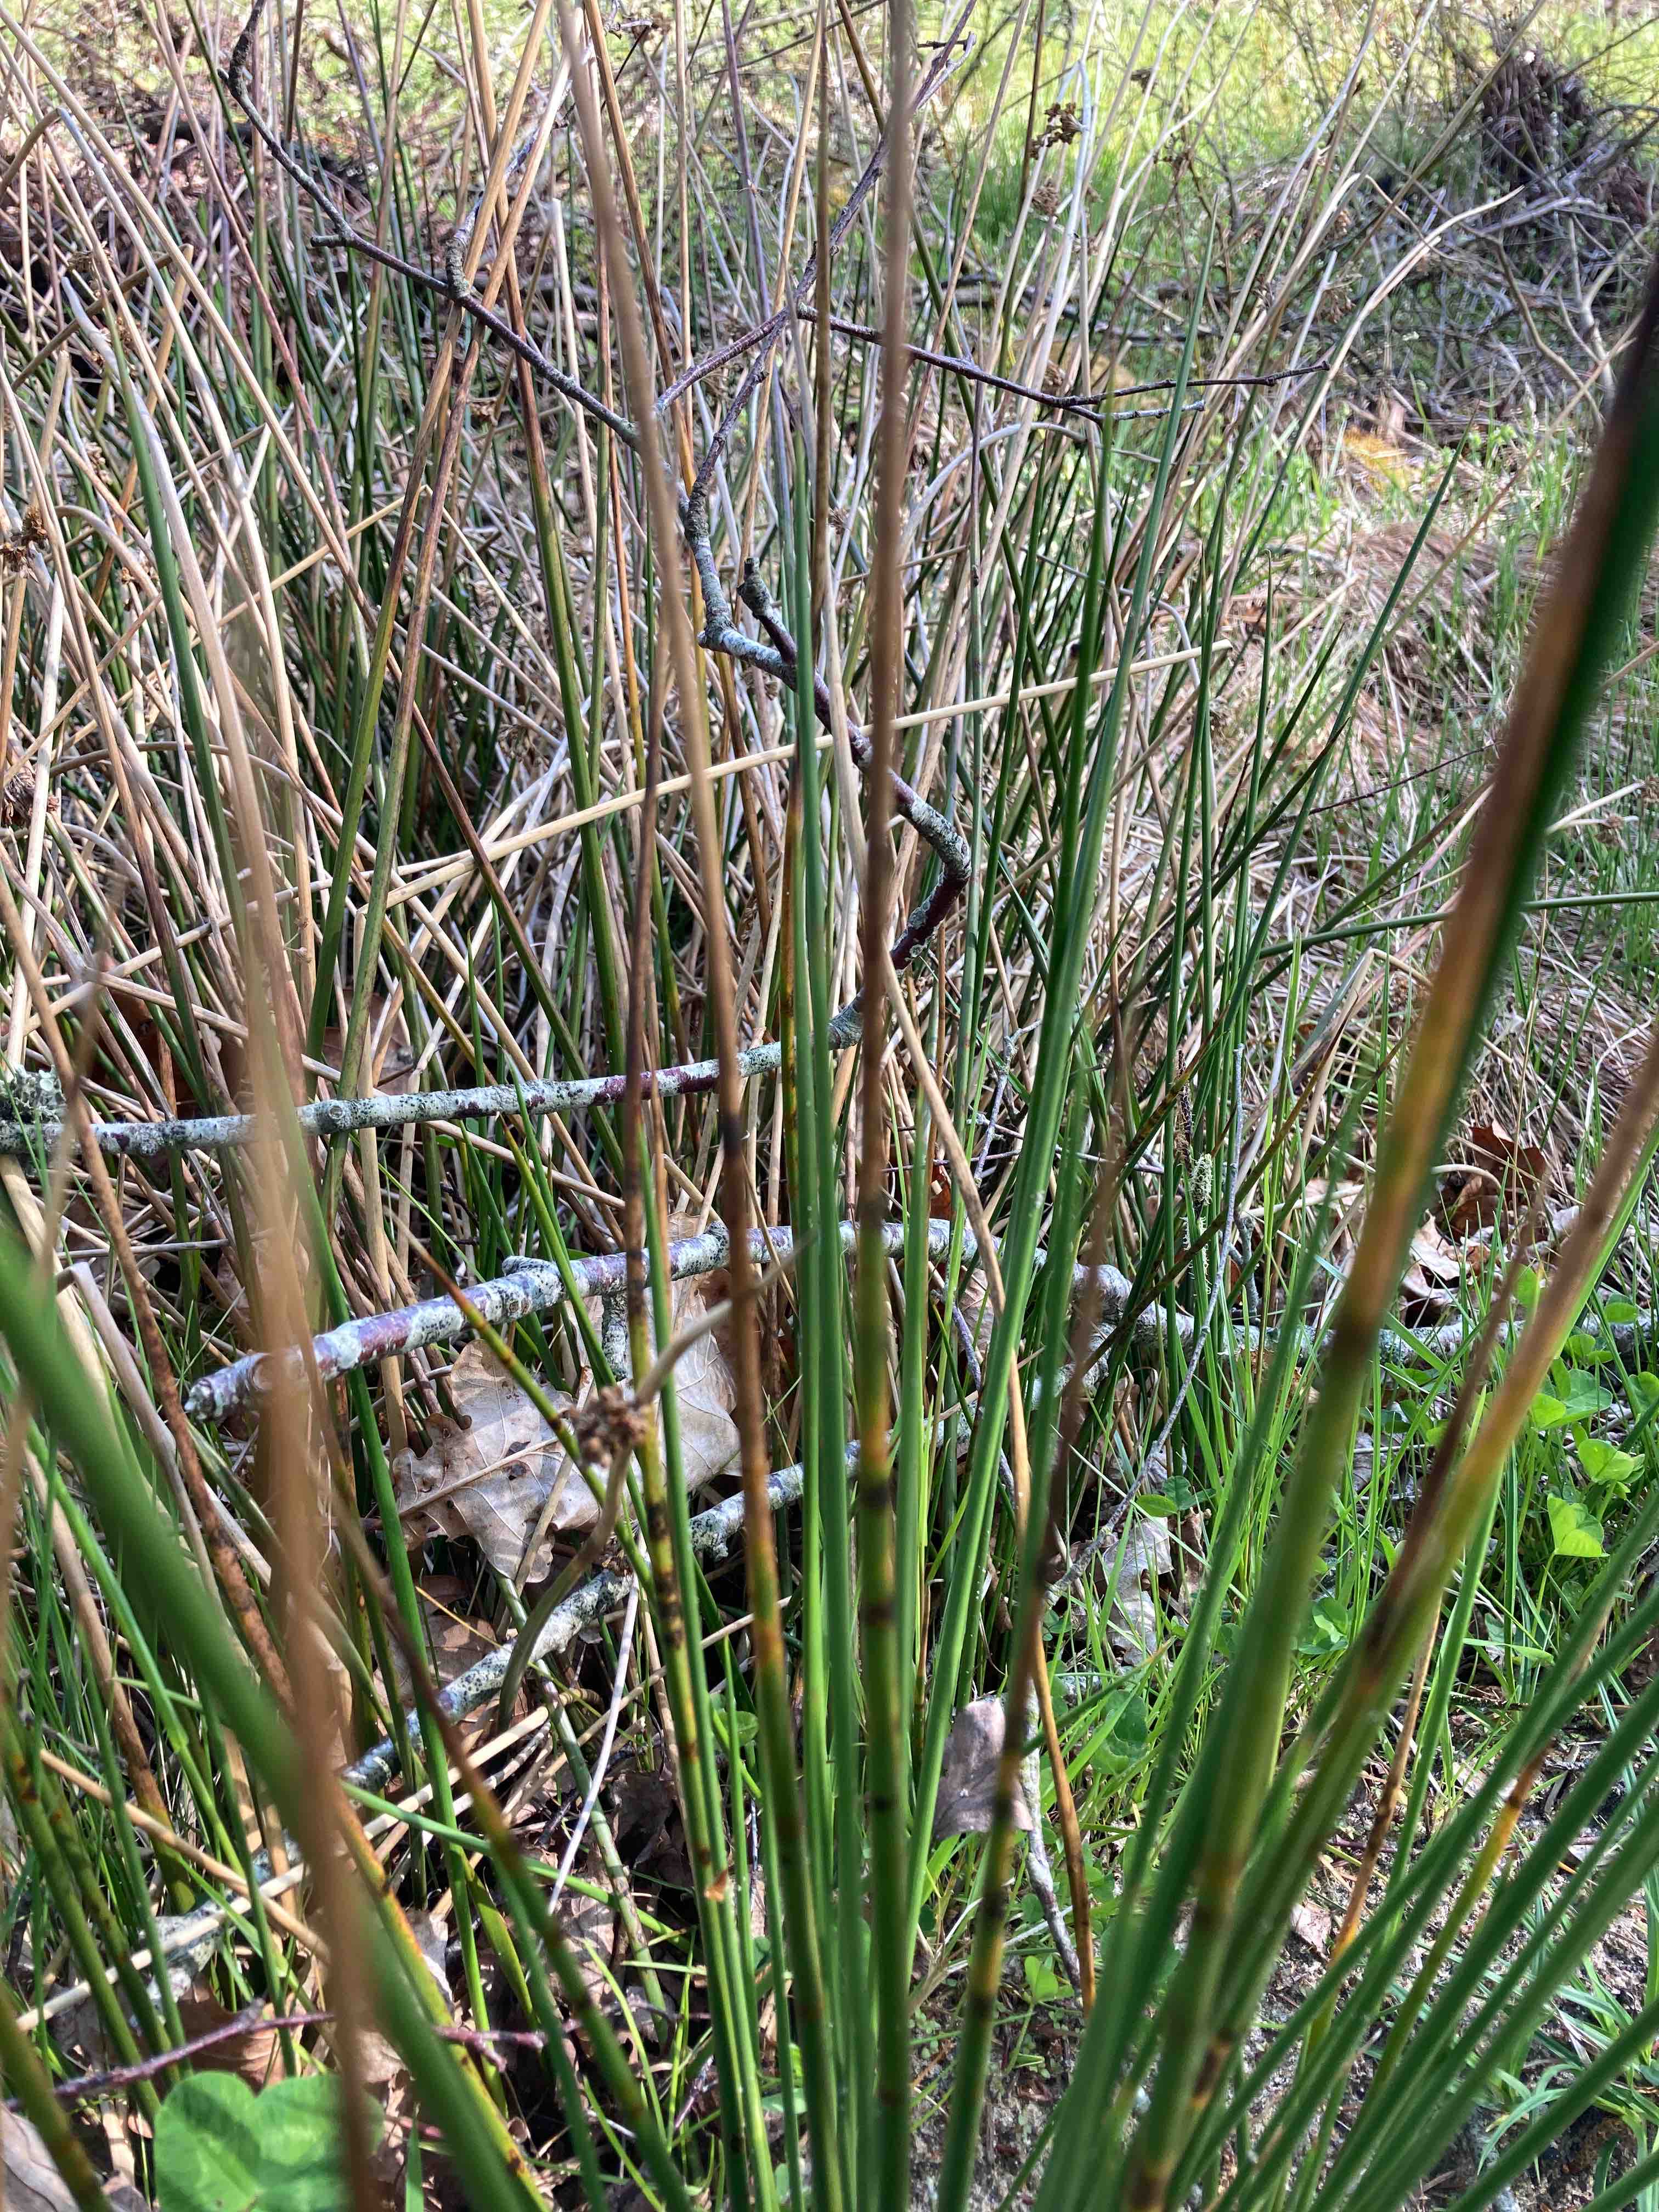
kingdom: Fungi
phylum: Ascomycota
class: Sordariomycetes
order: Phyllachorales
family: Phyllachoraceae
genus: Phyllachora
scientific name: Phyllachora junci
